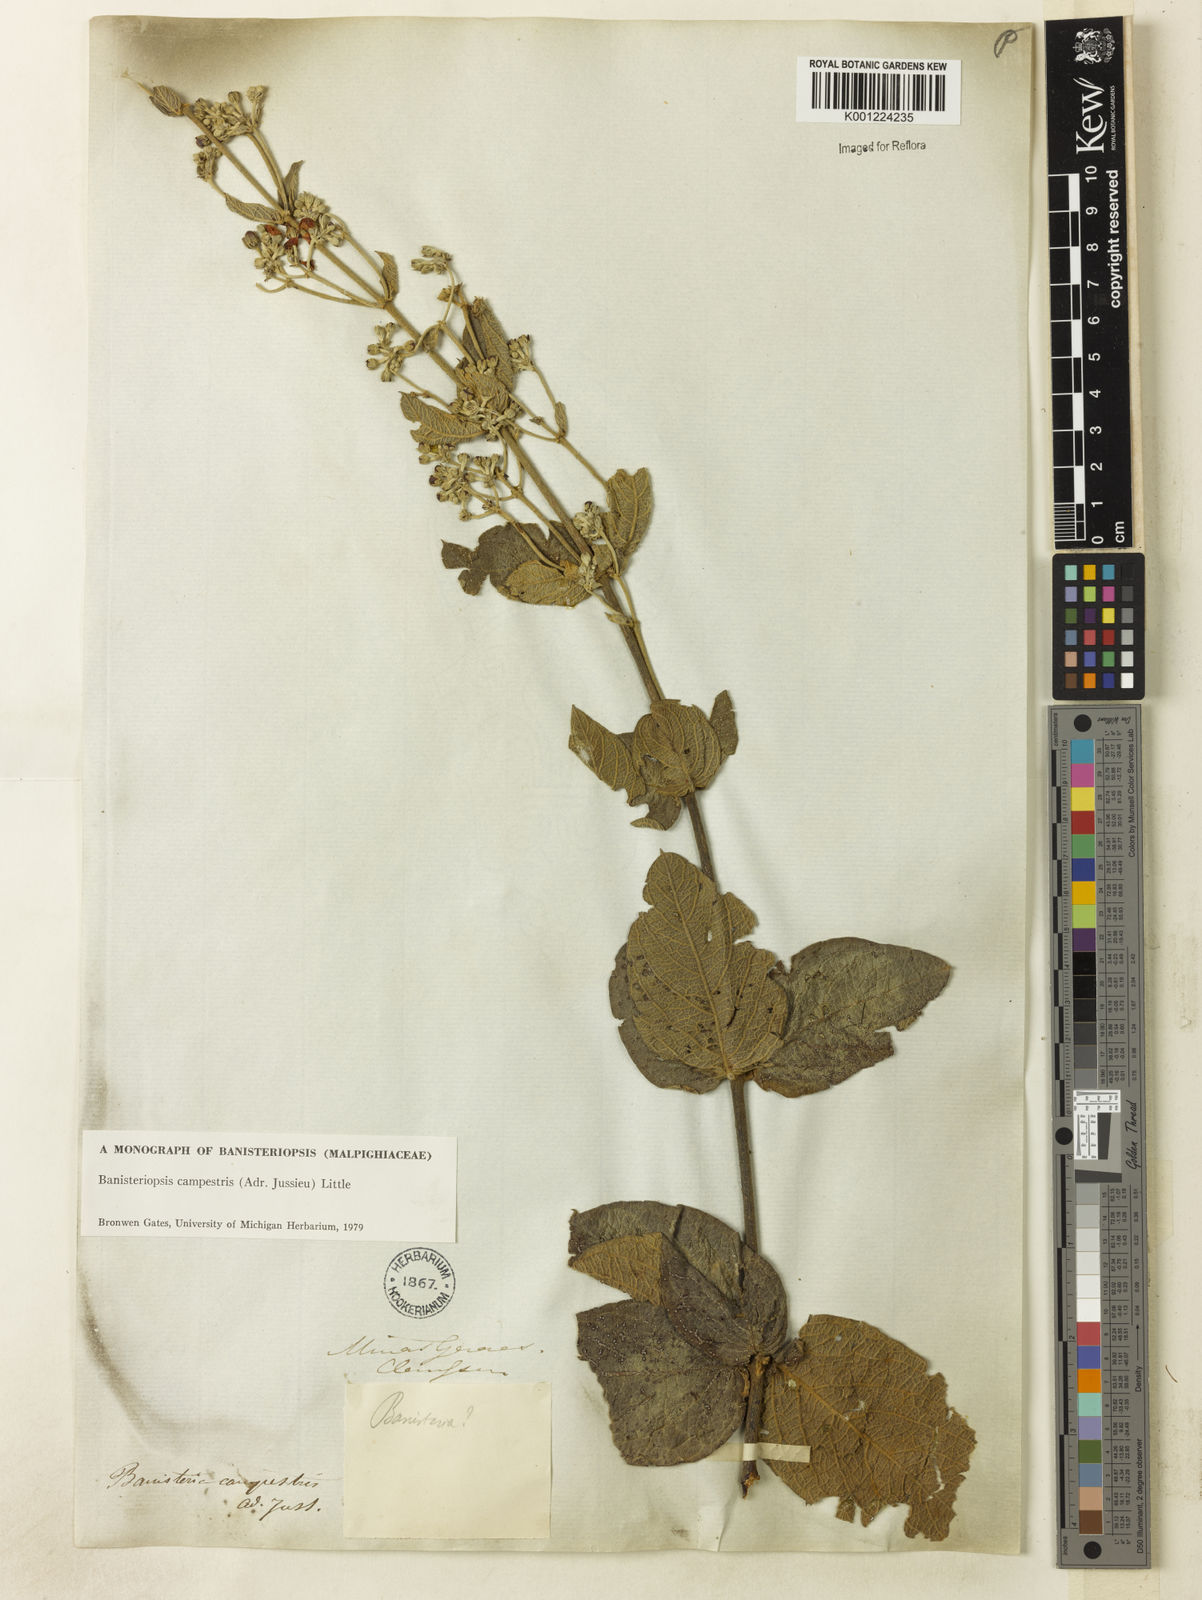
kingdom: Plantae
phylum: Tracheophyta
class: Magnoliopsida
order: Malpighiales
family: Malpighiaceae
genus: Banisteriopsis
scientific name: Banisteriopsis campestris
